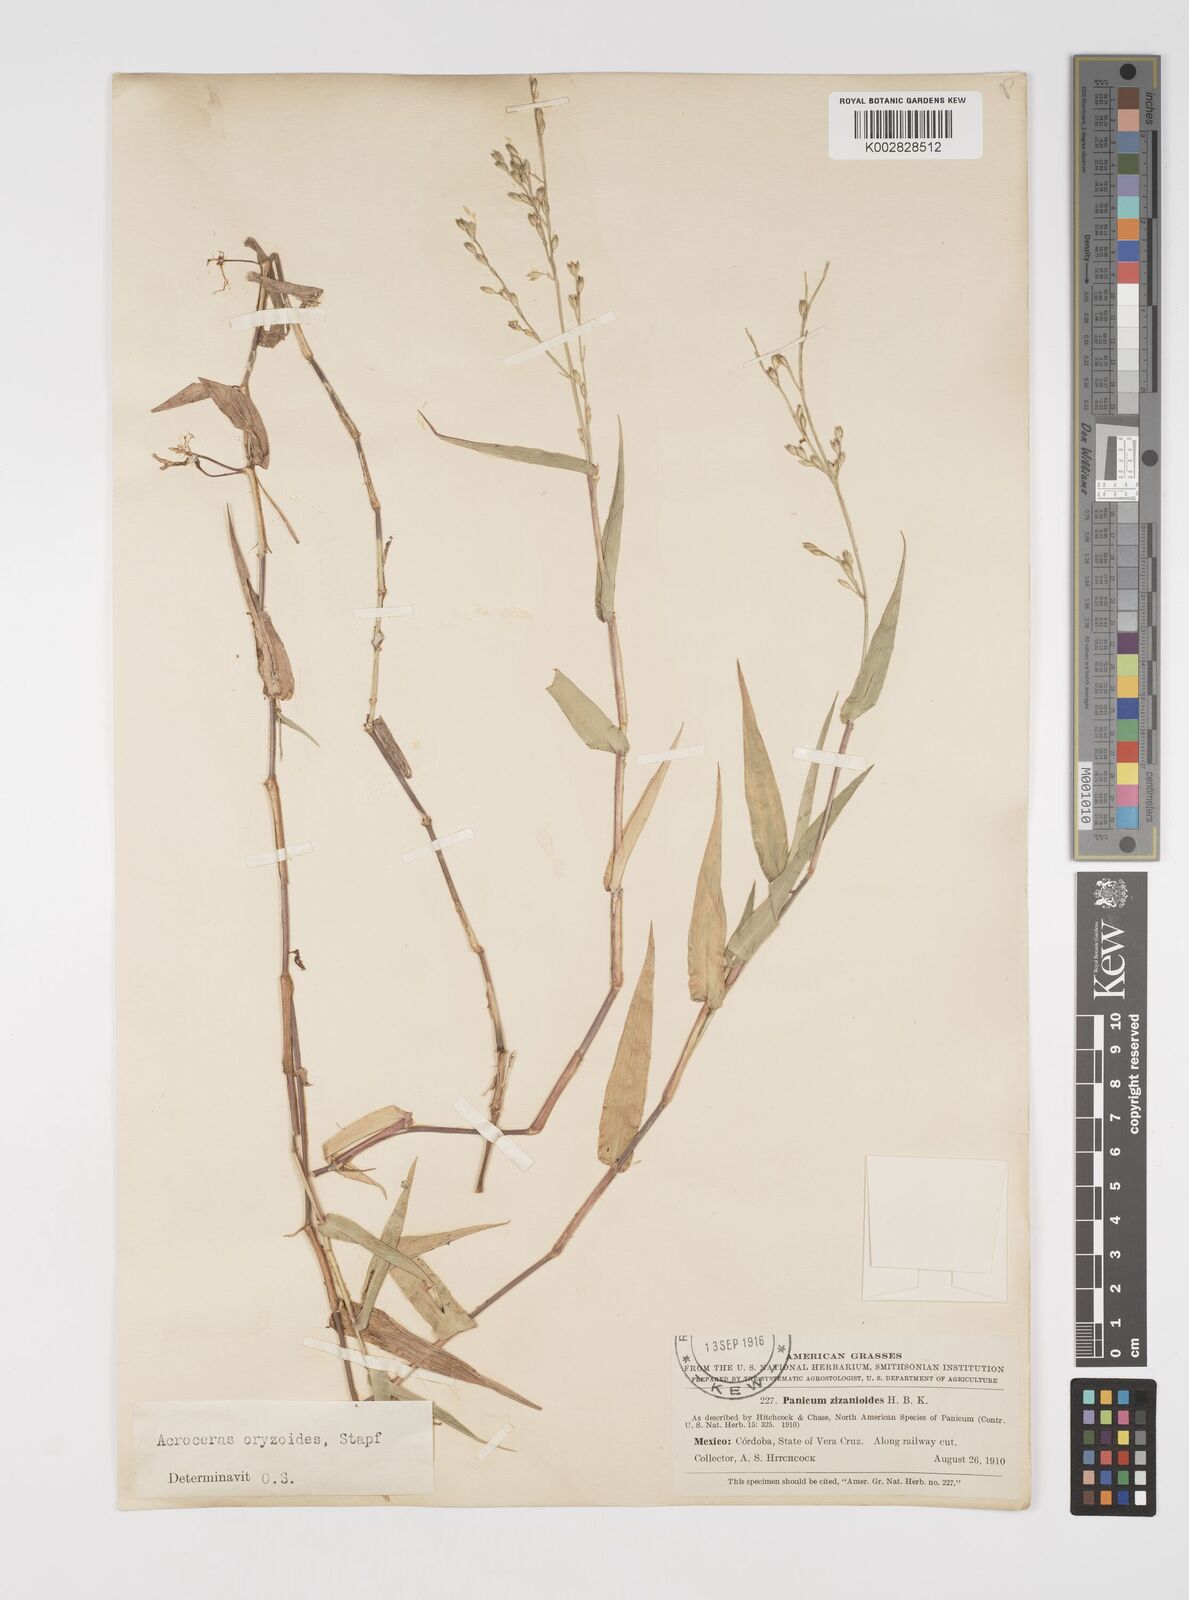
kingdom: Plantae
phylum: Tracheophyta
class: Liliopsida
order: Poales
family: Poaceae
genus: Acroceras
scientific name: Acroceras zizanioides
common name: Oat grass
